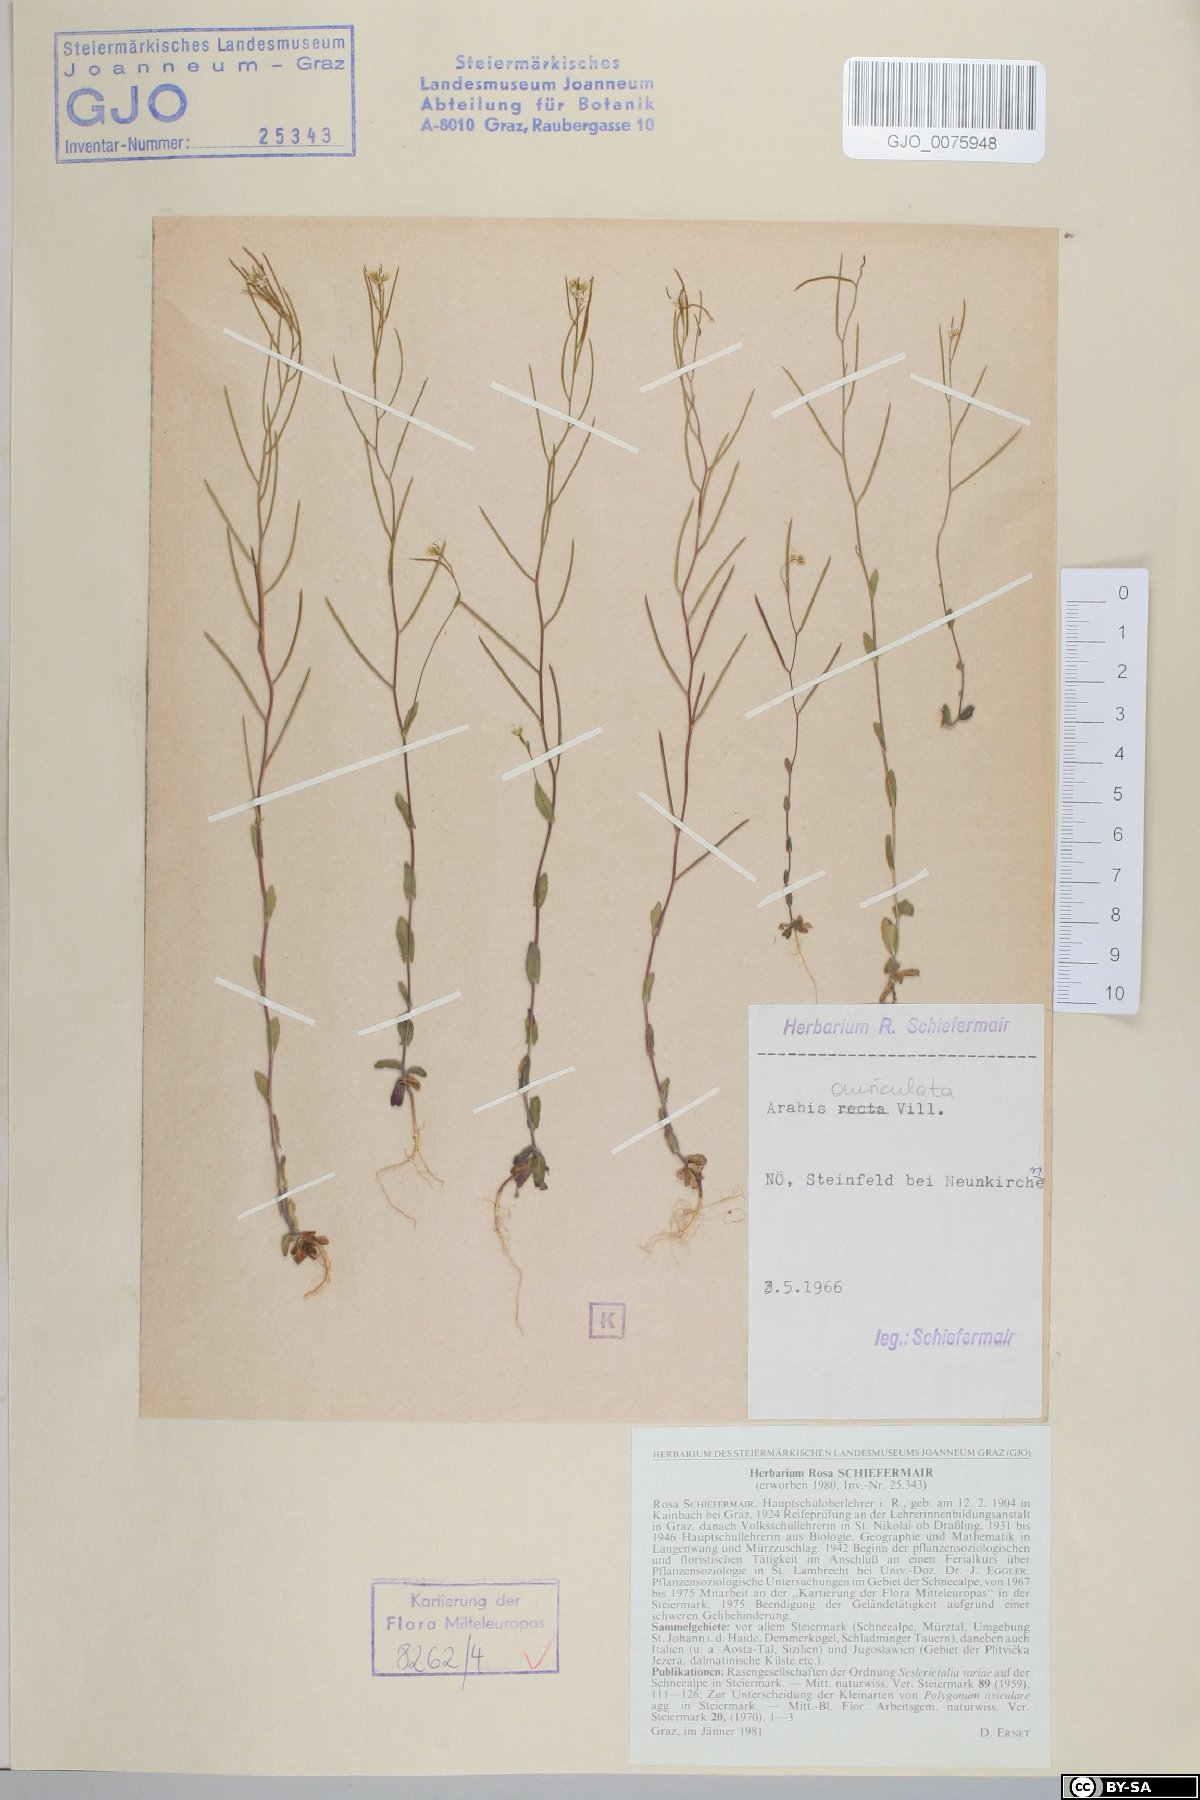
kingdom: Plantae
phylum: Tracheophyta
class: Magnoliopsida
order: Brassicales
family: Brassicaceae
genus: Arabis
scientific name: Arabis auriculata
